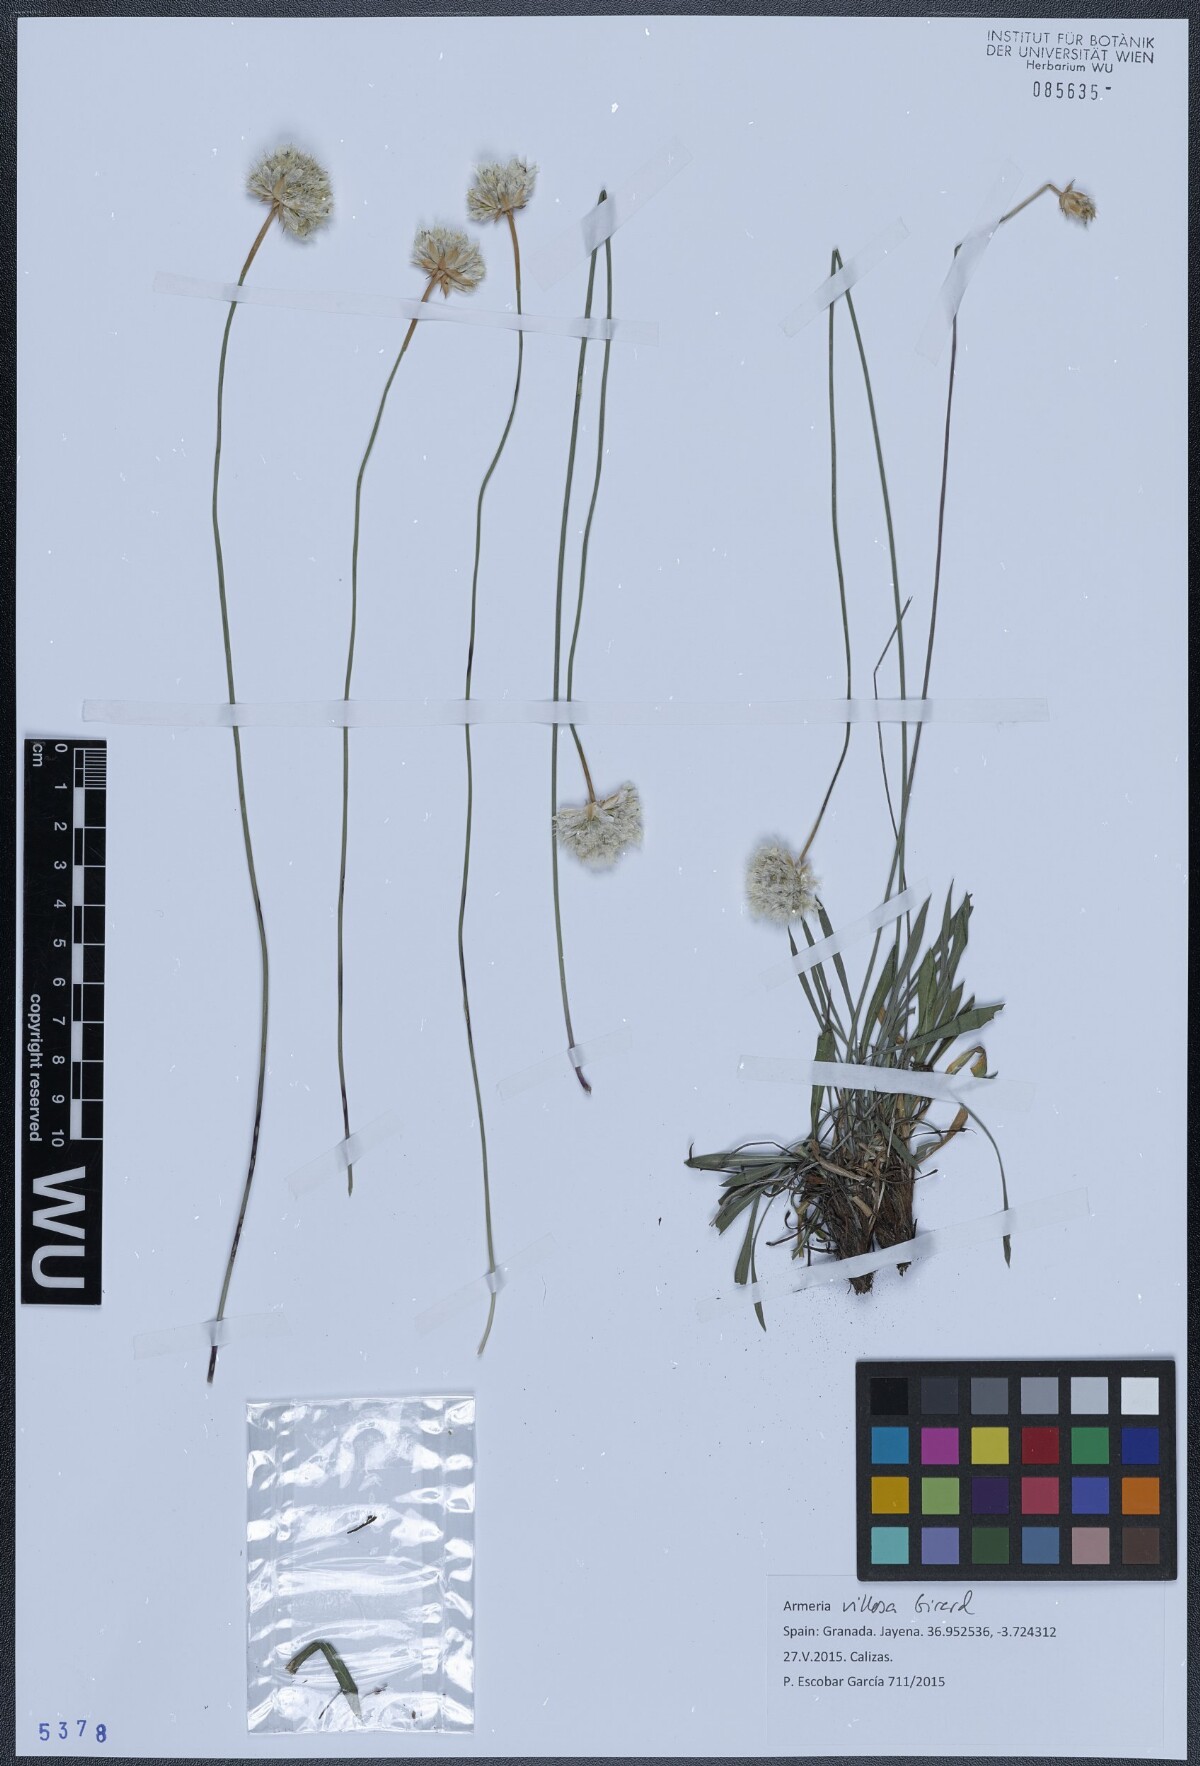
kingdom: Plantae
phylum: Tracheophyta
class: Magnoliopsida
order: Caryophyllales
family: Plumbaginaceae
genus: Armeria
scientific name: Armeria villosa
